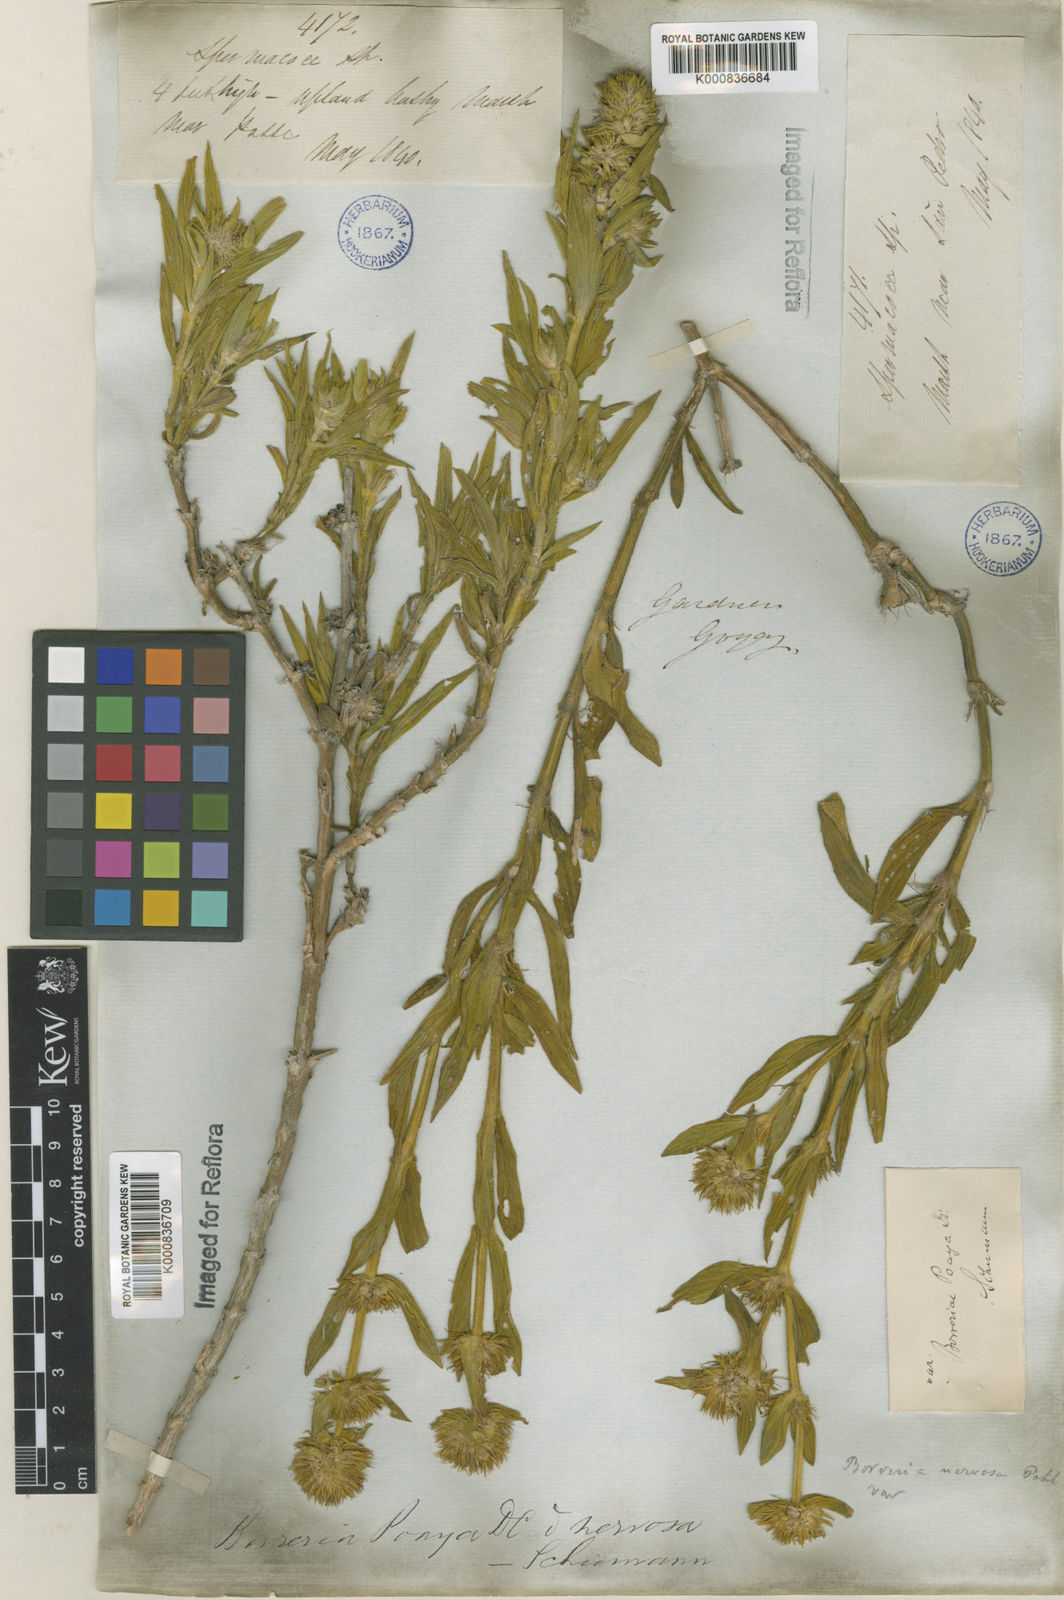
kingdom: Plantae
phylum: Tracheophyta
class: Magnoliopsida
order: Gentianales
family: Rubiaceae
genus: Spermacoce
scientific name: Spermacoce poaya
